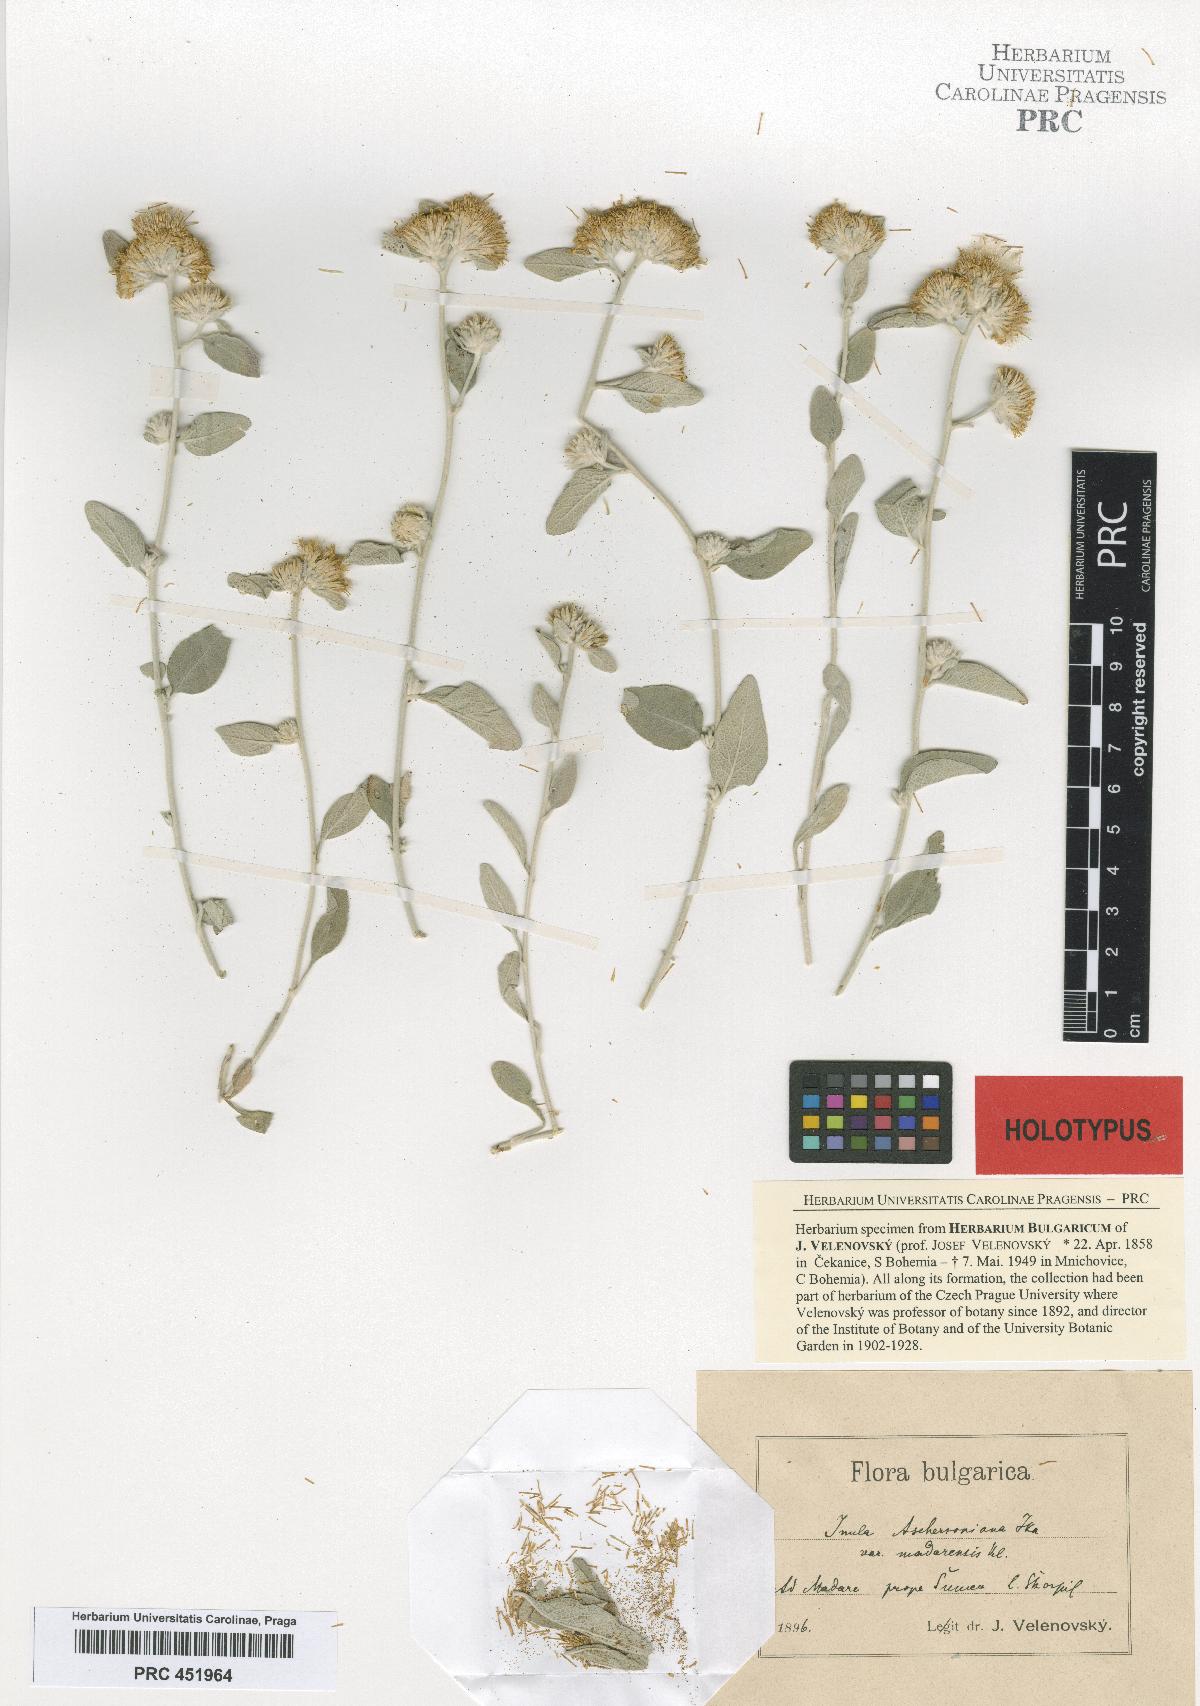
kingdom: Plantae
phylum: Tracheophyta
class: Magnoliopsida
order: Asterales
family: Asteraceae
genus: Pentanema
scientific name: Pentanema aschersonianum
